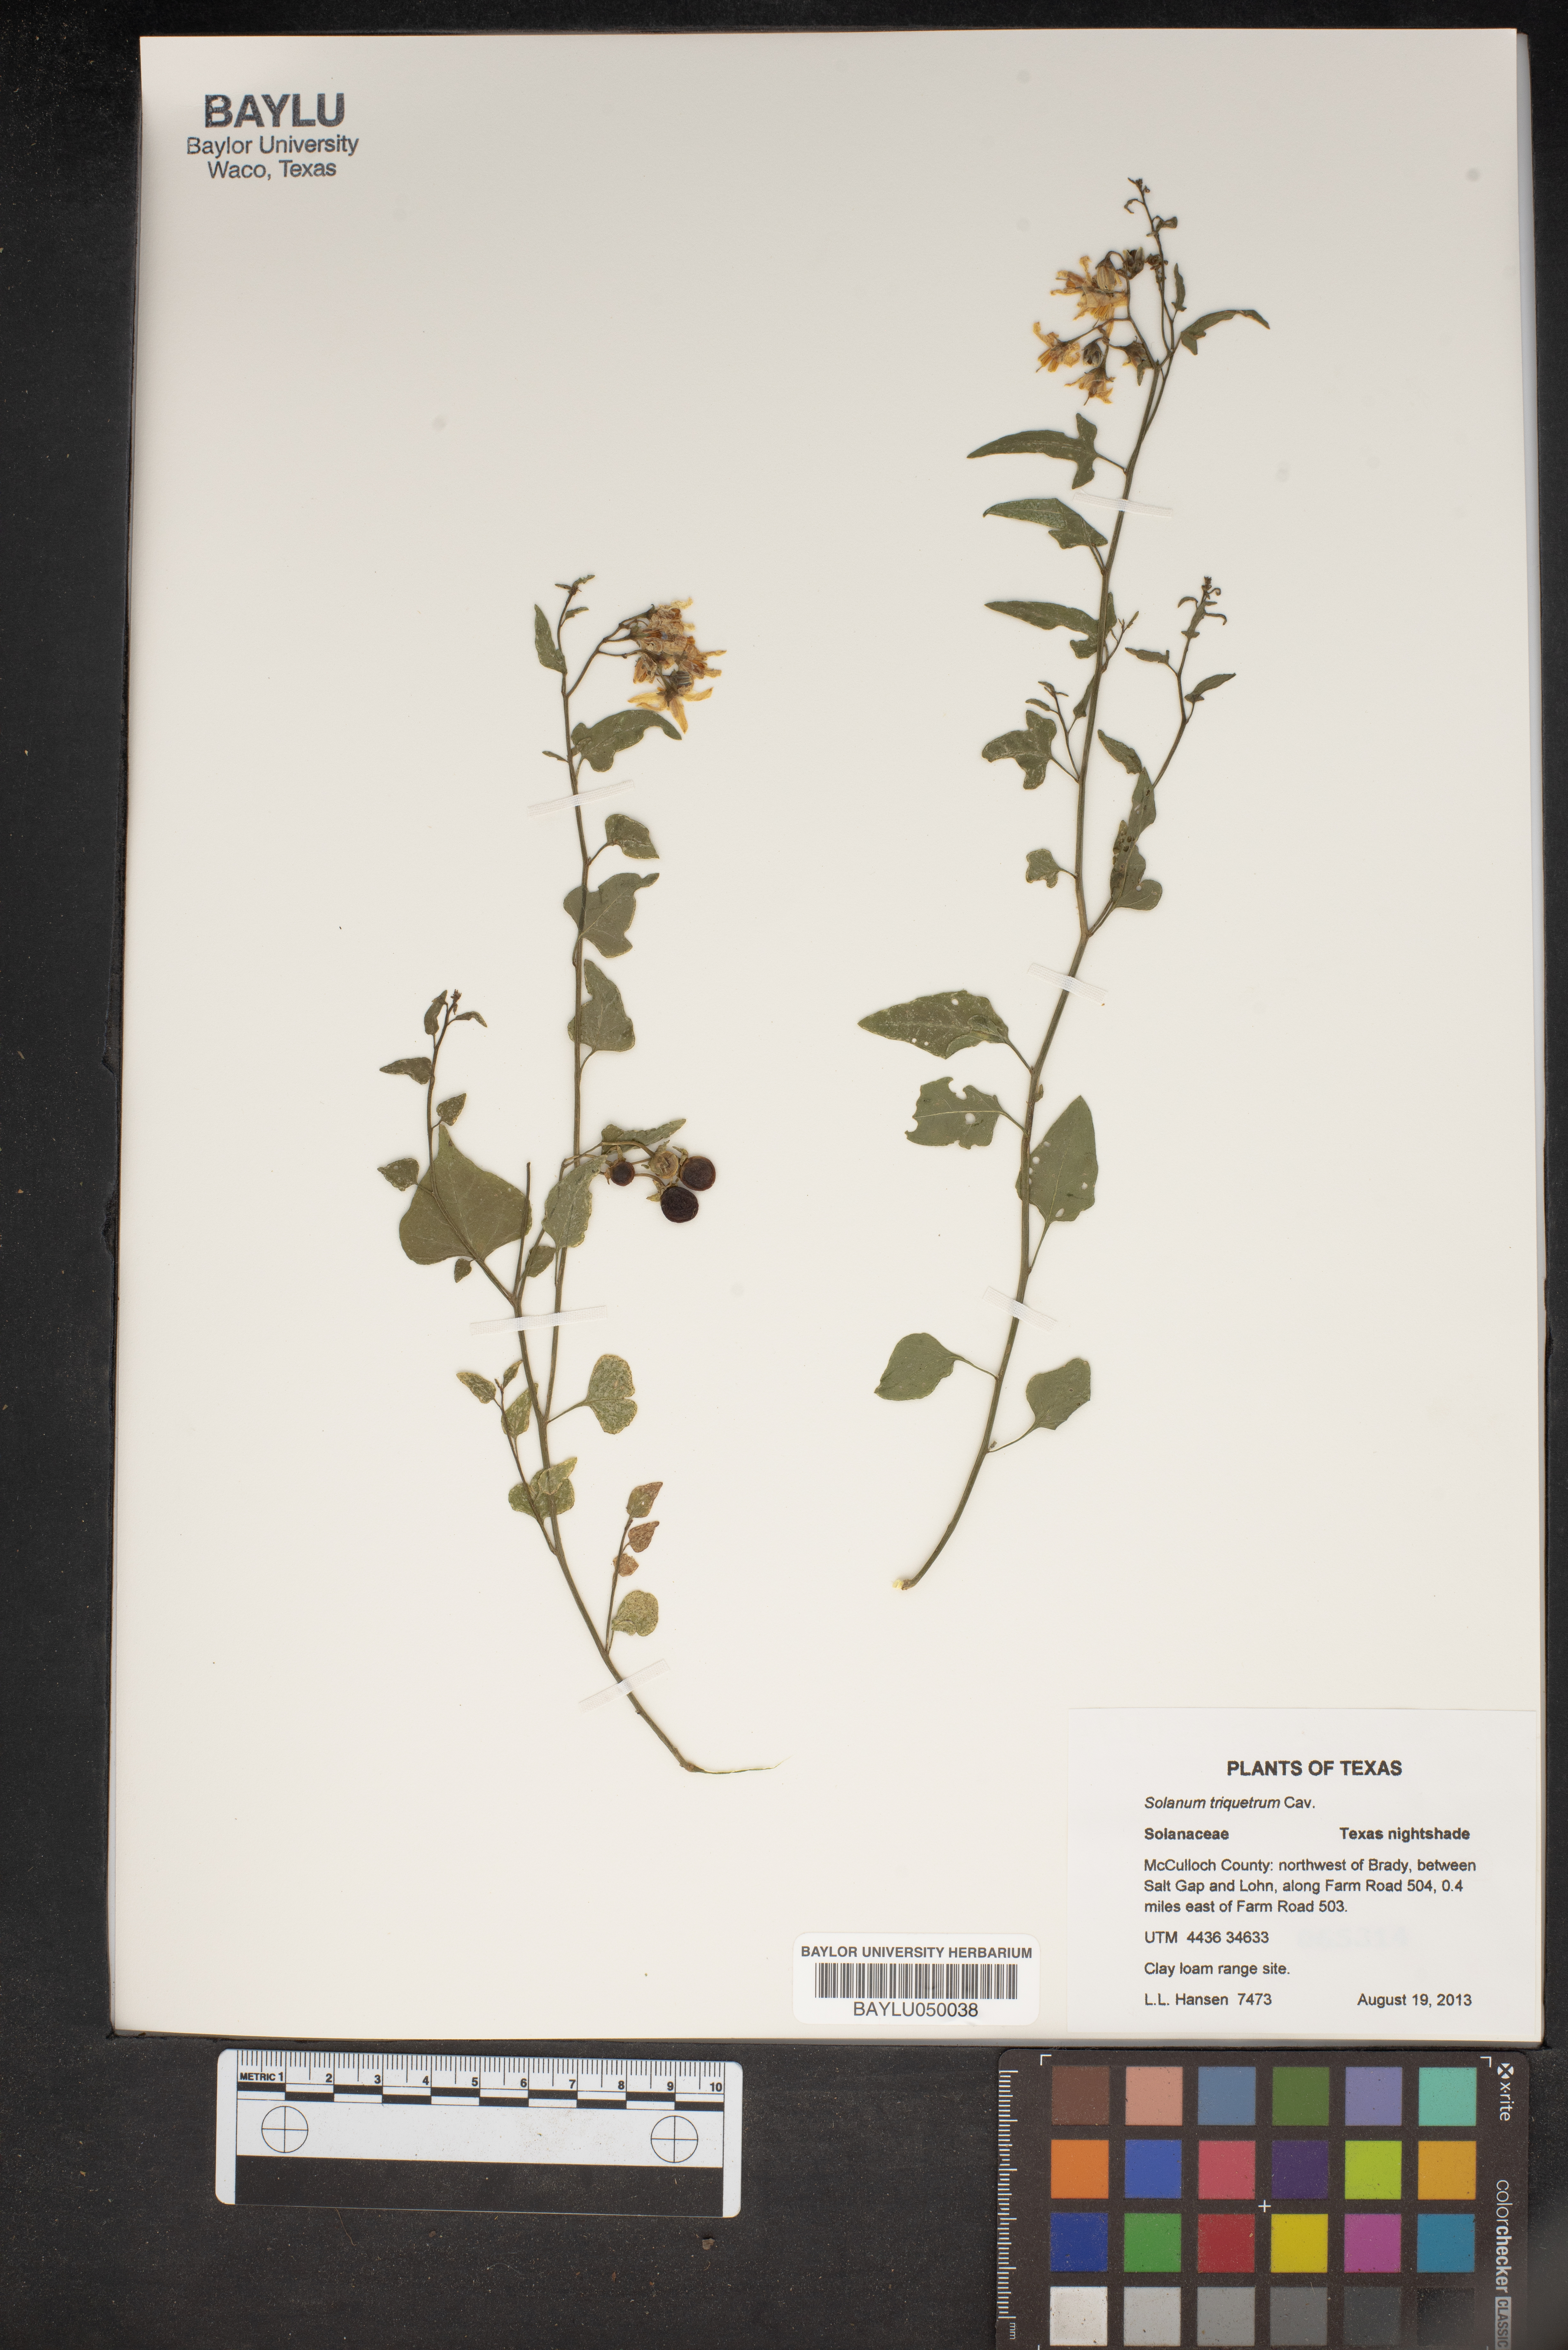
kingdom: Plantae
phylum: Tracheophyta
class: Magnoliopsida
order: Solanales
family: Solanaceae
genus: Solanum
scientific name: Solanum triquetrum
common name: Texas nightshade
